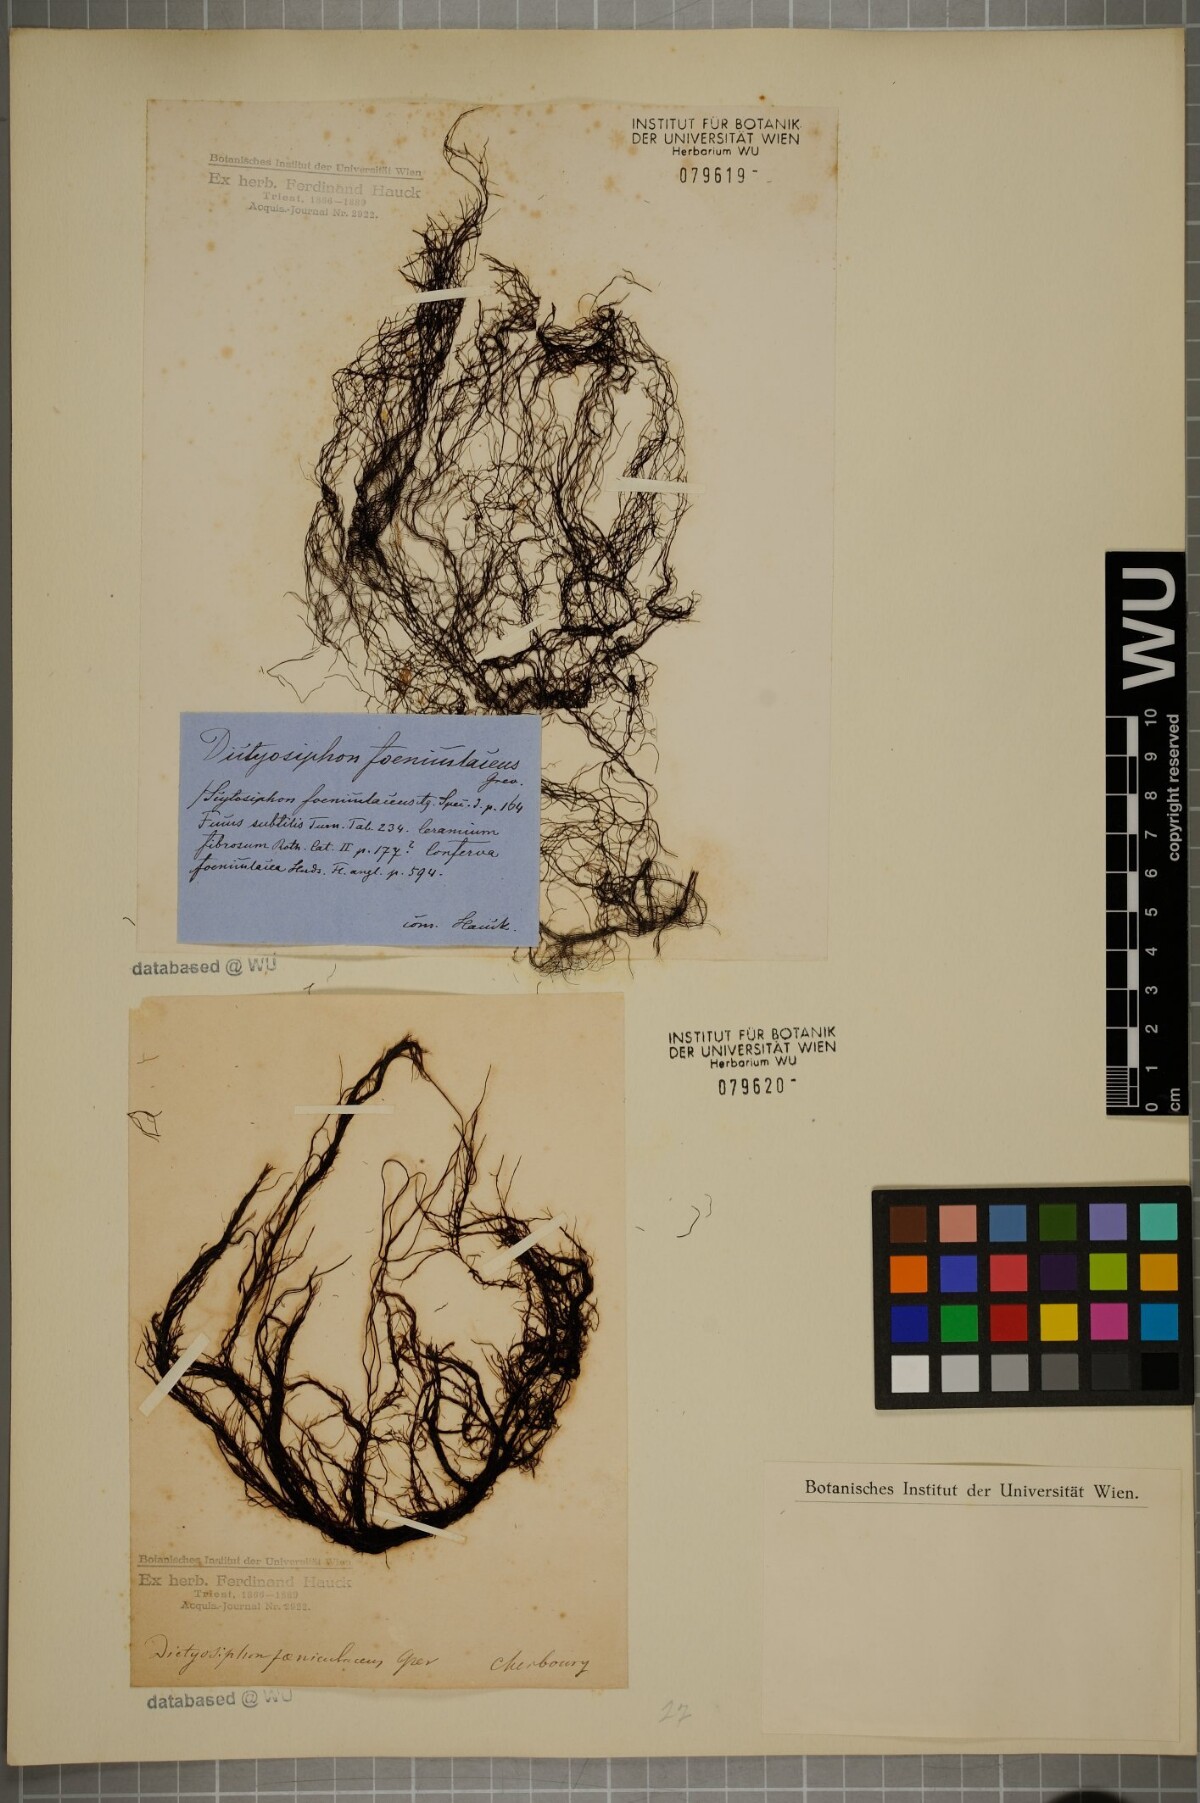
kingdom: Chromista
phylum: Ochrophyta
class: Phaeophyceae
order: Ectocarpales
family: Chordariaceae
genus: Dictyosiphon
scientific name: Dictyosiphon foeniculaceus
